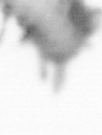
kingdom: Animalia
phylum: Annelida
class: Polychaeta
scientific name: Polychaeta
